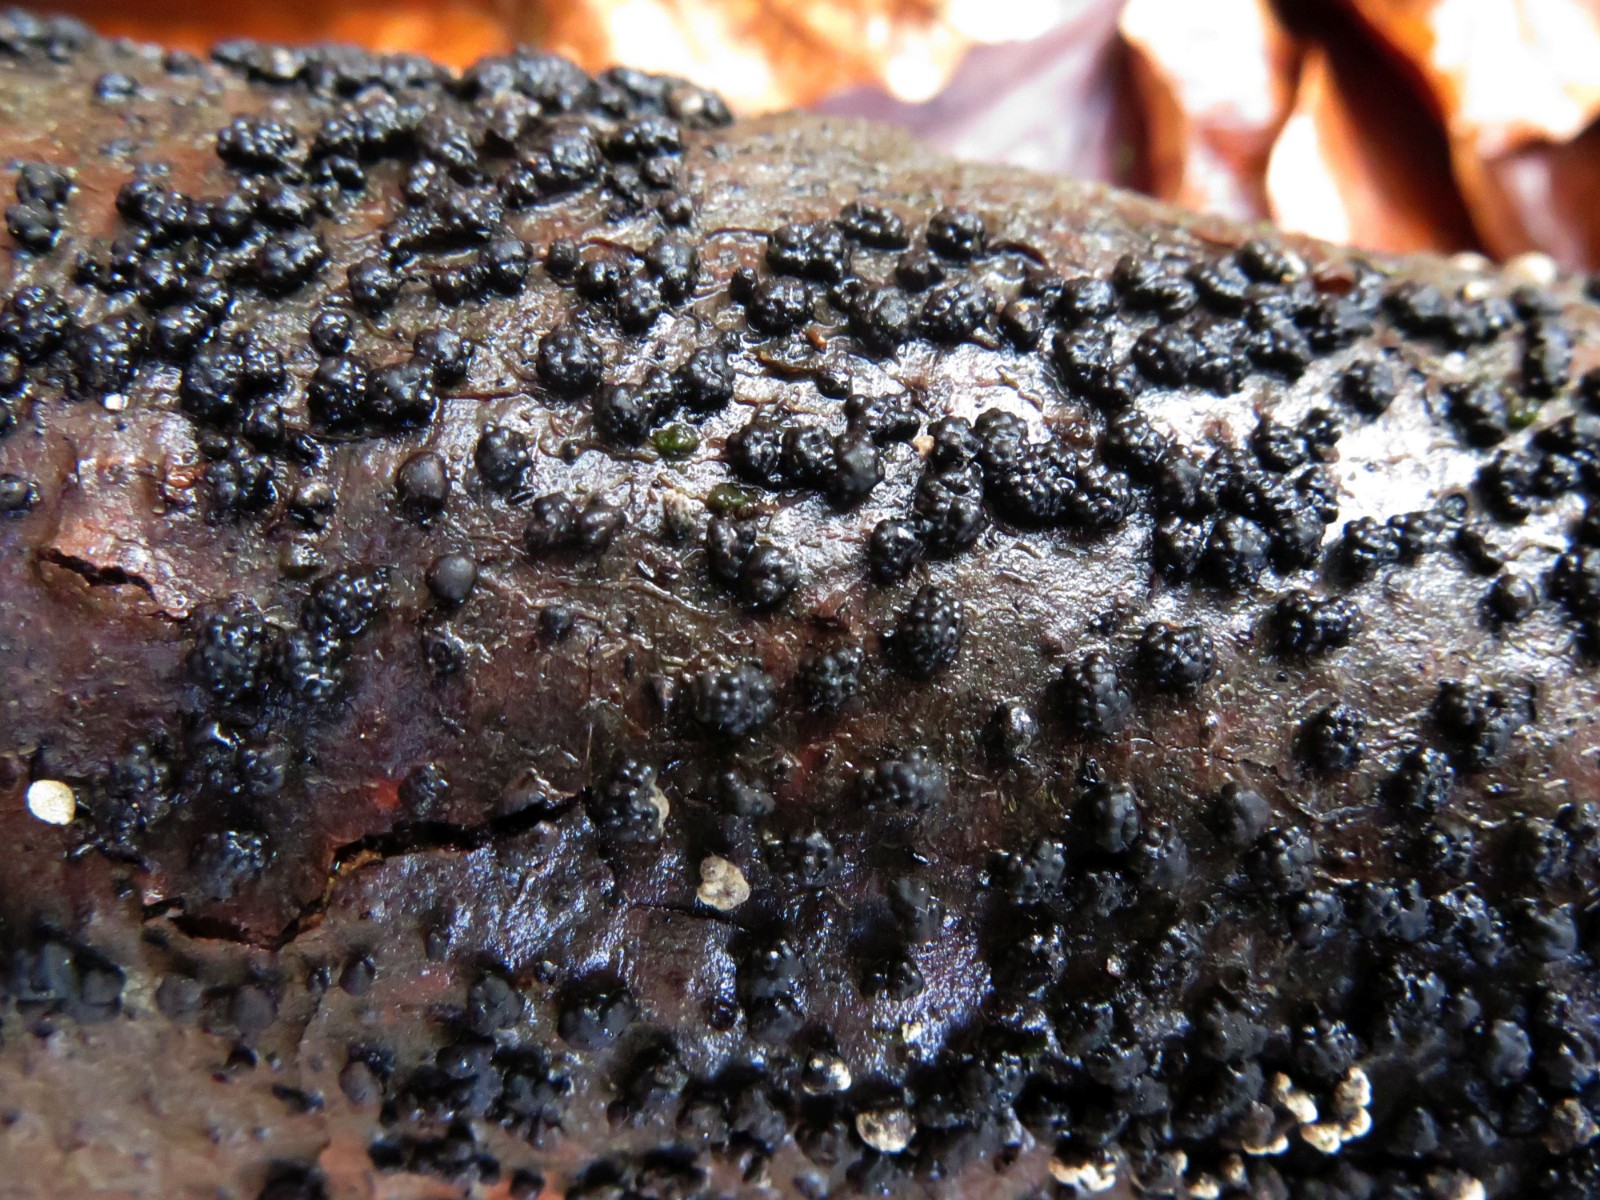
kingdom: Fungi
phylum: Ascomycota
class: Sordariomycetes
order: Xylariales
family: Hypoxylaceae
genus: Jackrogersella
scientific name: Jackrogersella cohaerens
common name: sammenflydende kulbær
